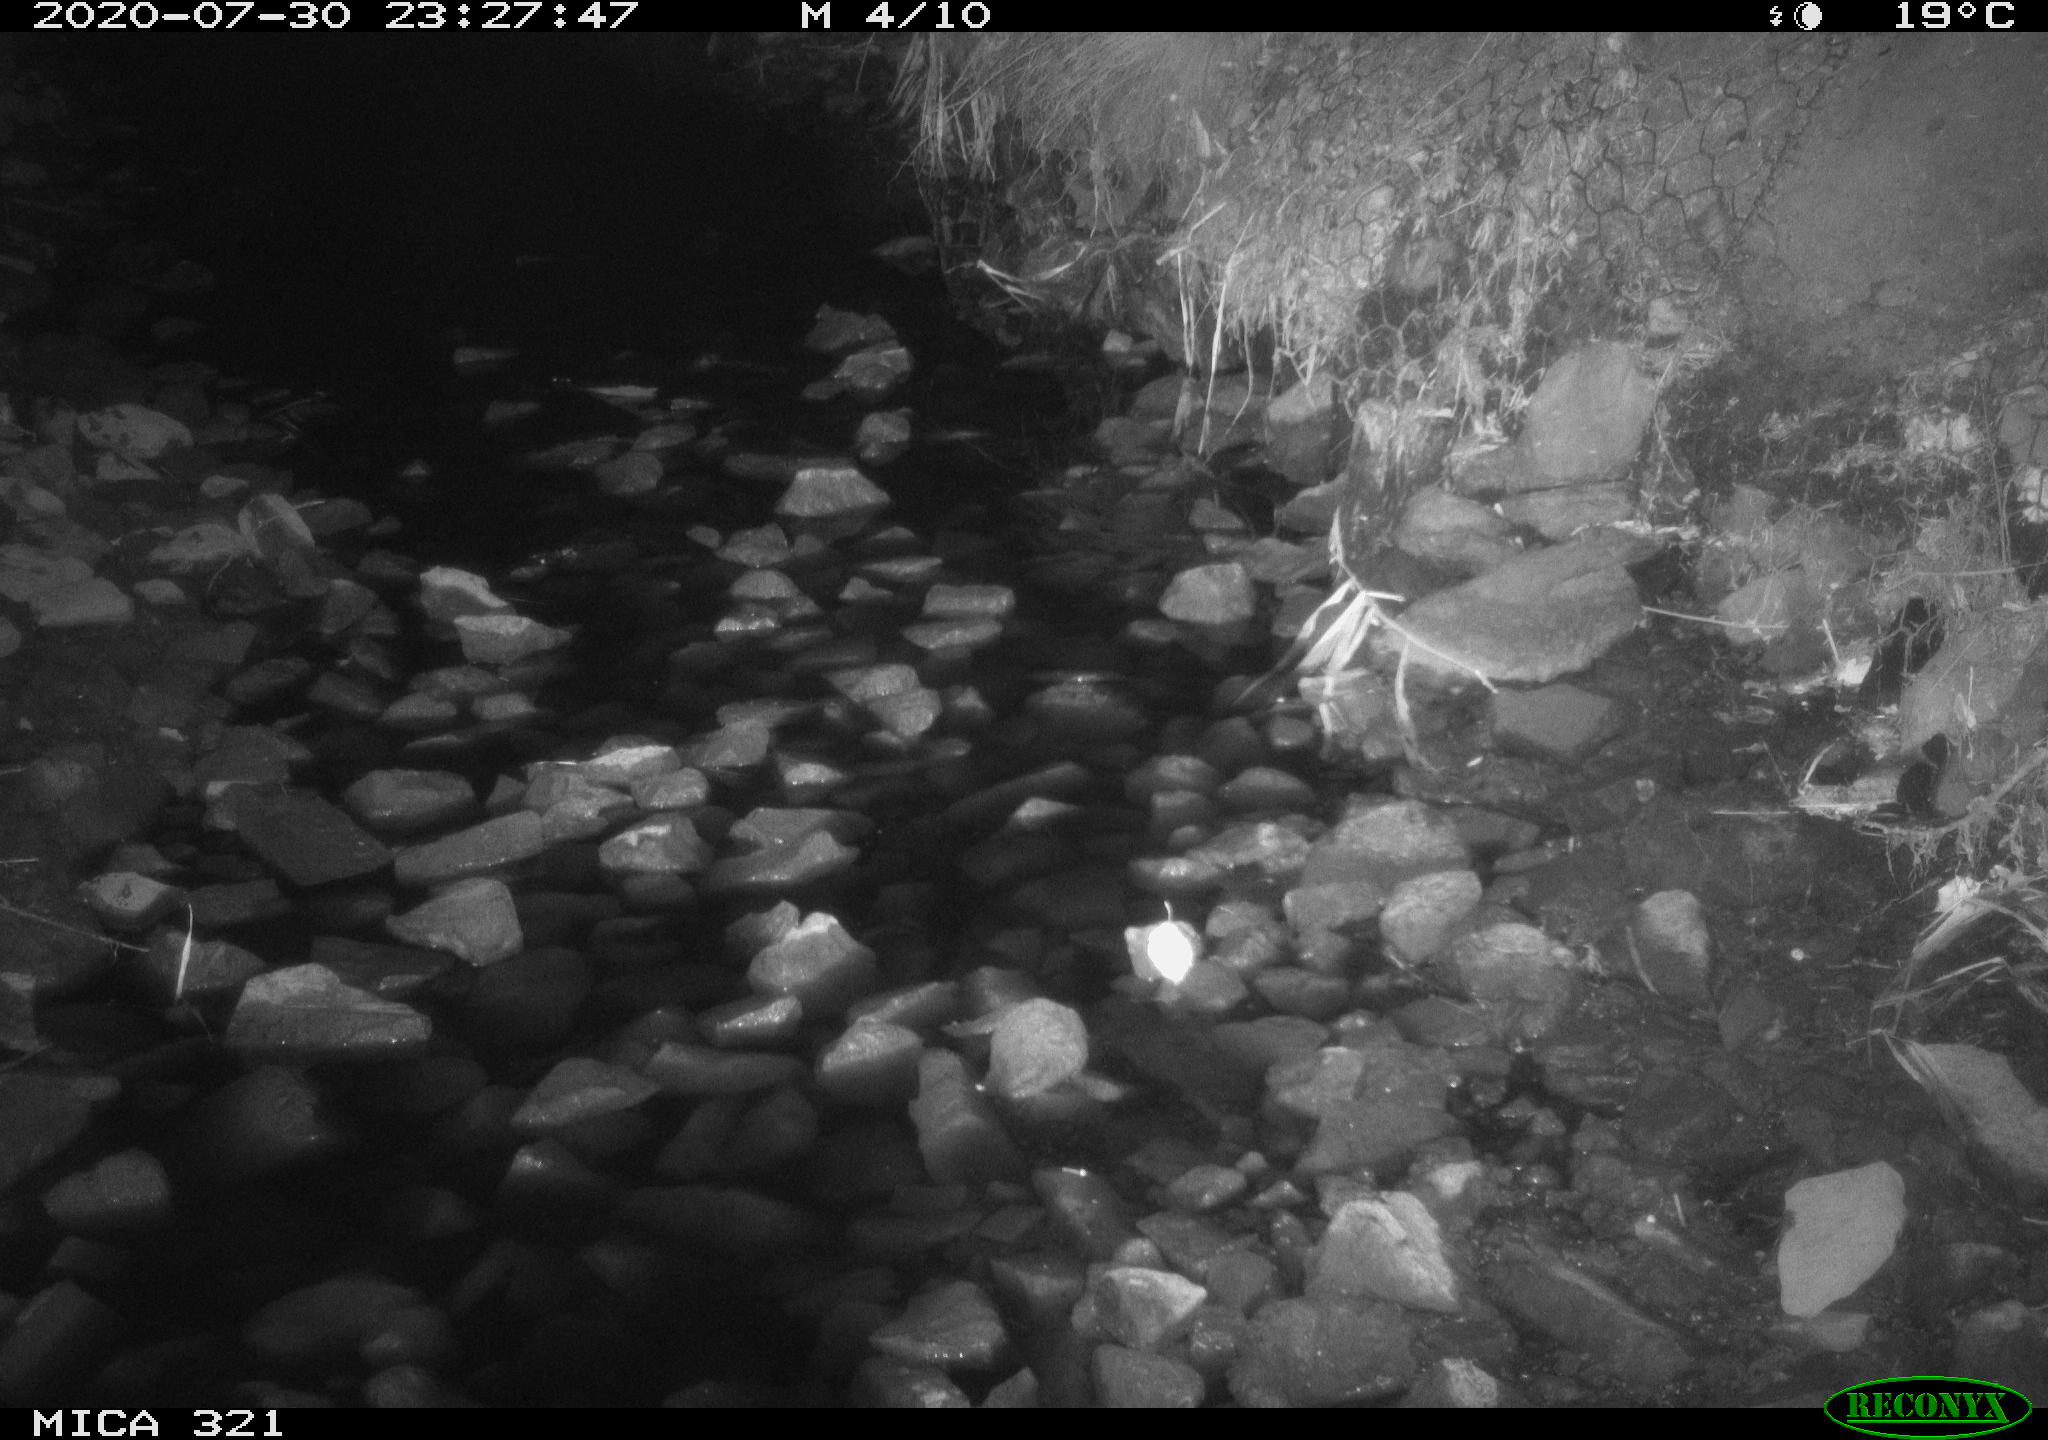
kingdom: Animalia
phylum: Chordata
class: Mammalia
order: Rodentia
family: Muridae
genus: Rattus
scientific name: Rattus norvegicus
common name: Brown rat
